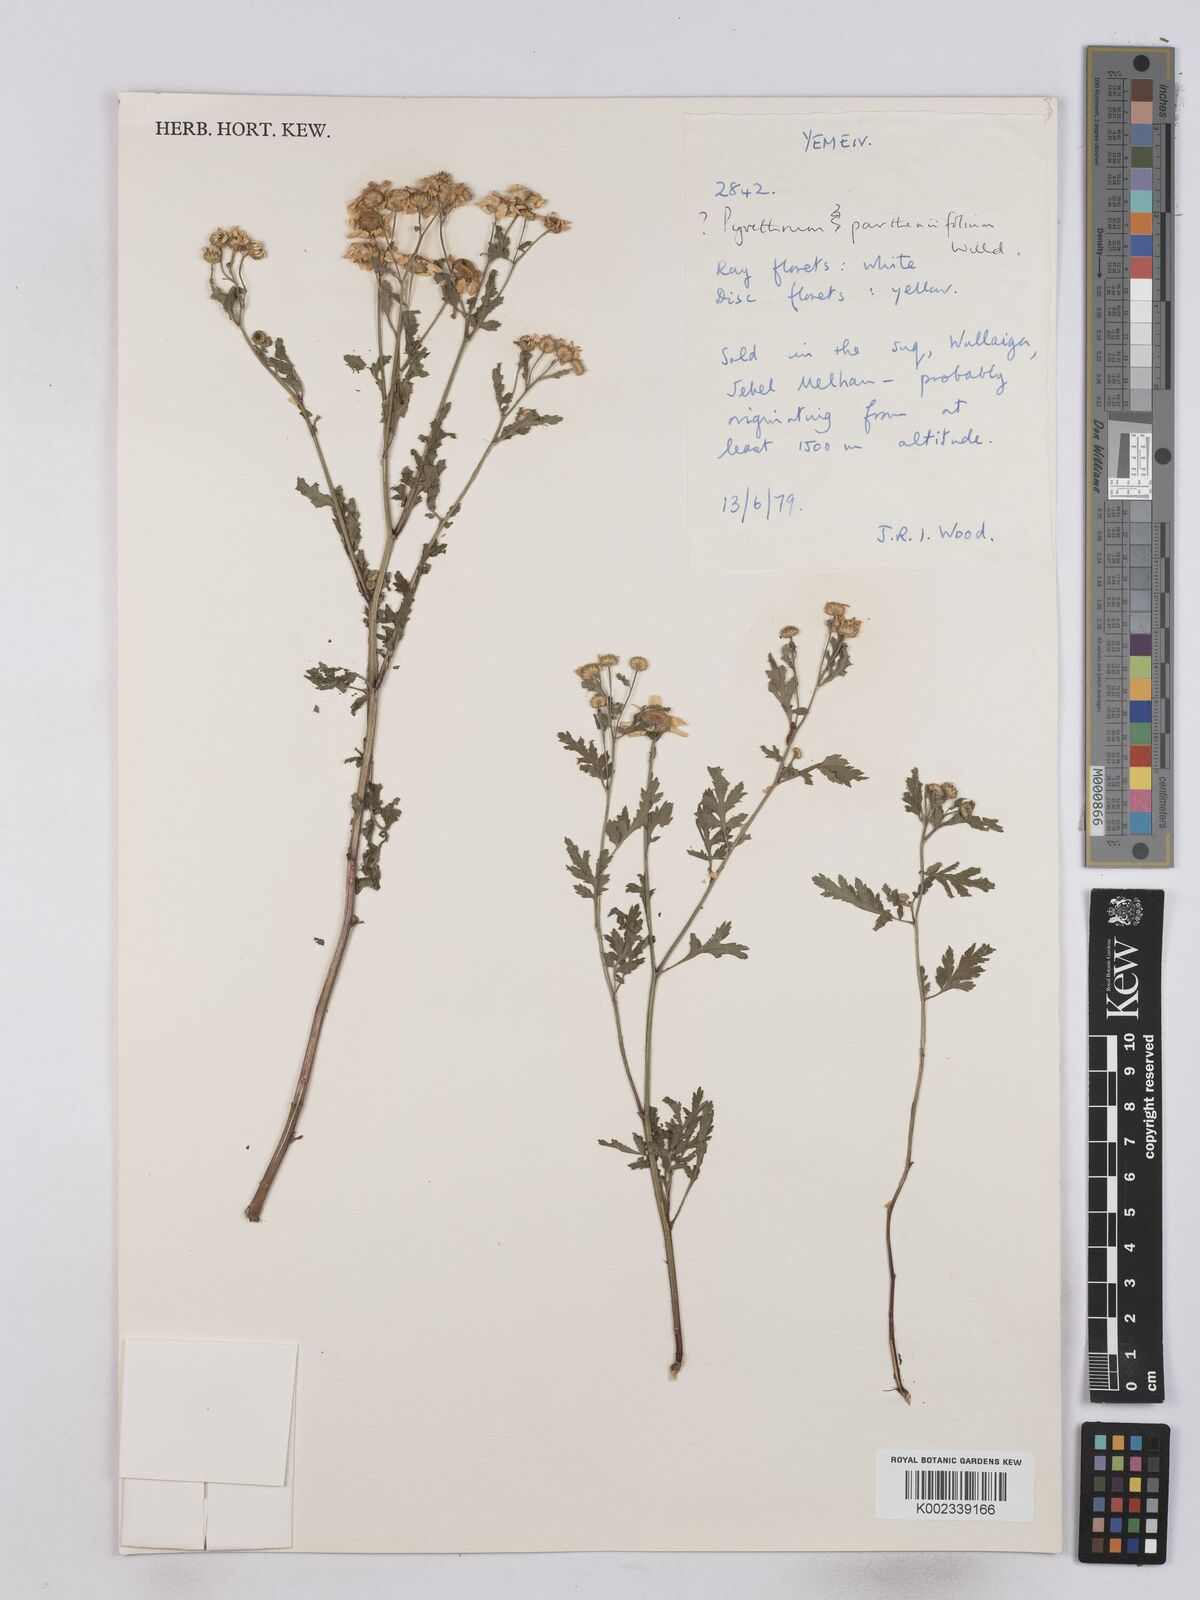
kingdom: Plantae
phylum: Tracheophyta
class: Magnoliopsida
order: Asterales
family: Asteraceae
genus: Tanacetum
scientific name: Tanacetum partheniifolium
